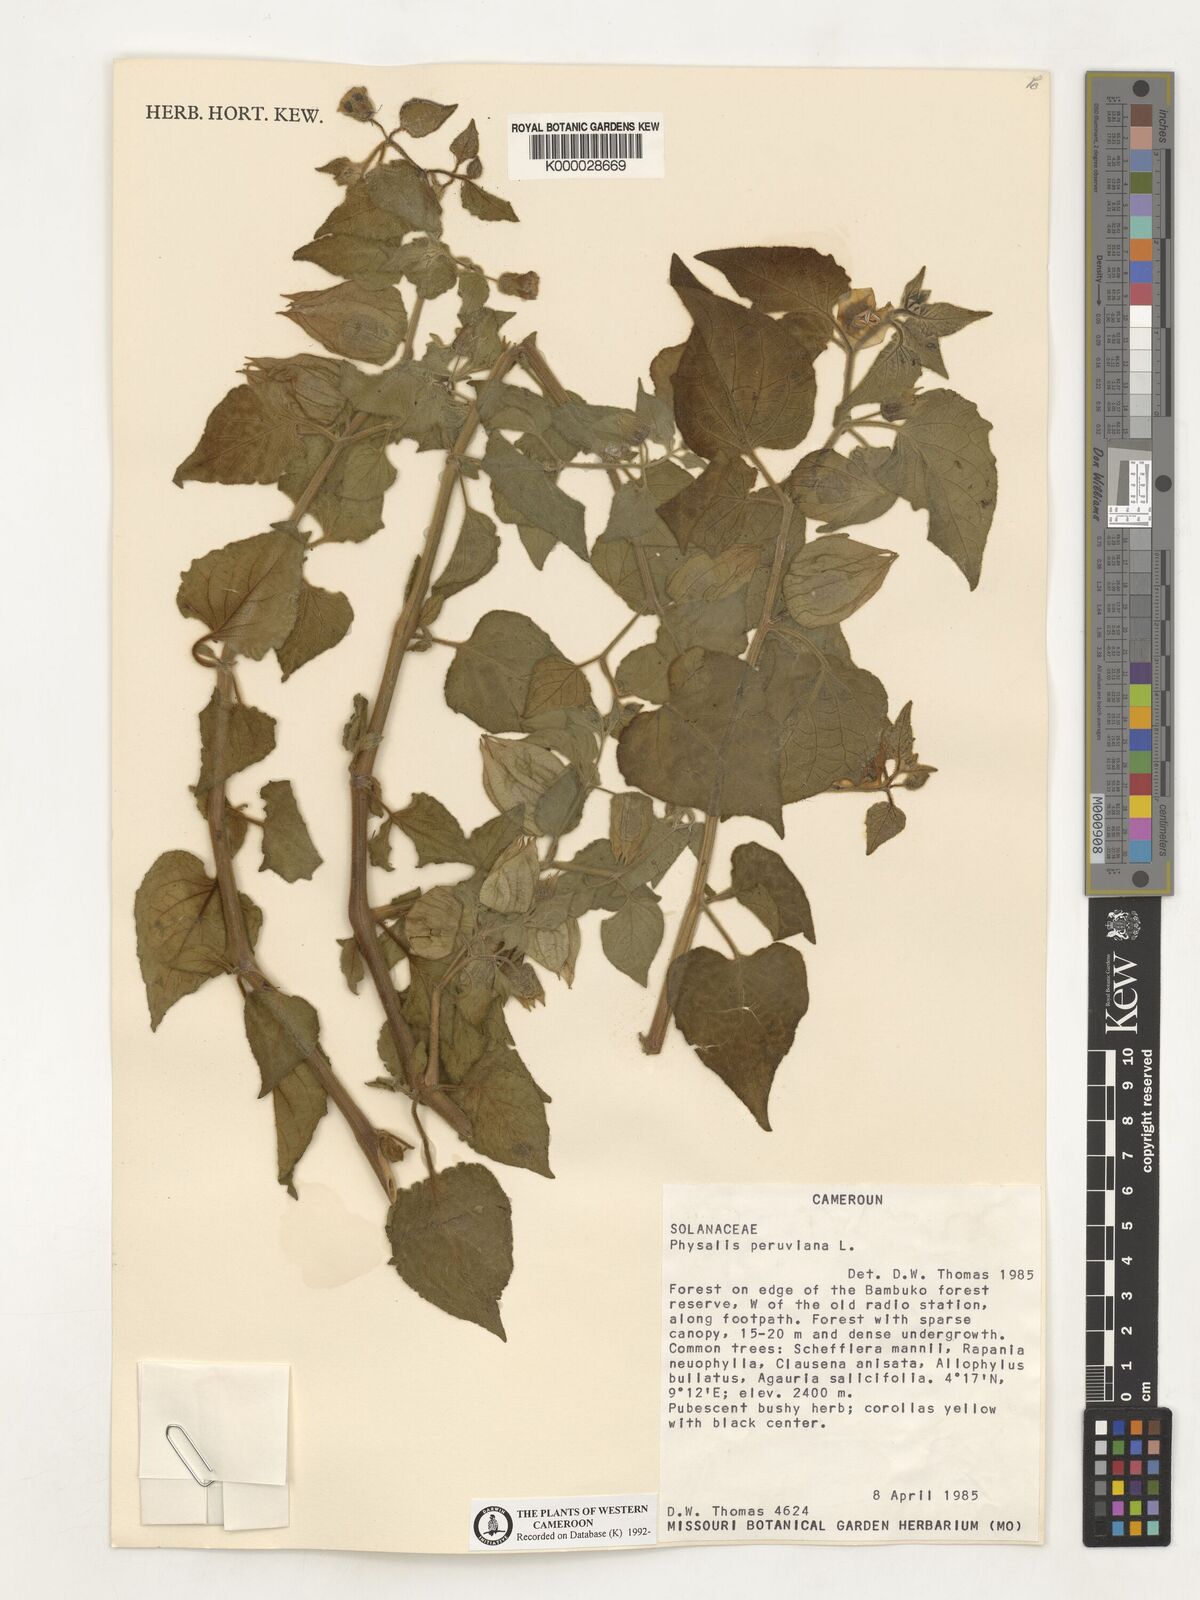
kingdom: Plantae
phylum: Tracheophyta
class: Magnoliopsida
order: Solanales
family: Solanaceae
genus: Physalis
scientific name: Physalis peruviana
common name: Cape-gooseberry
